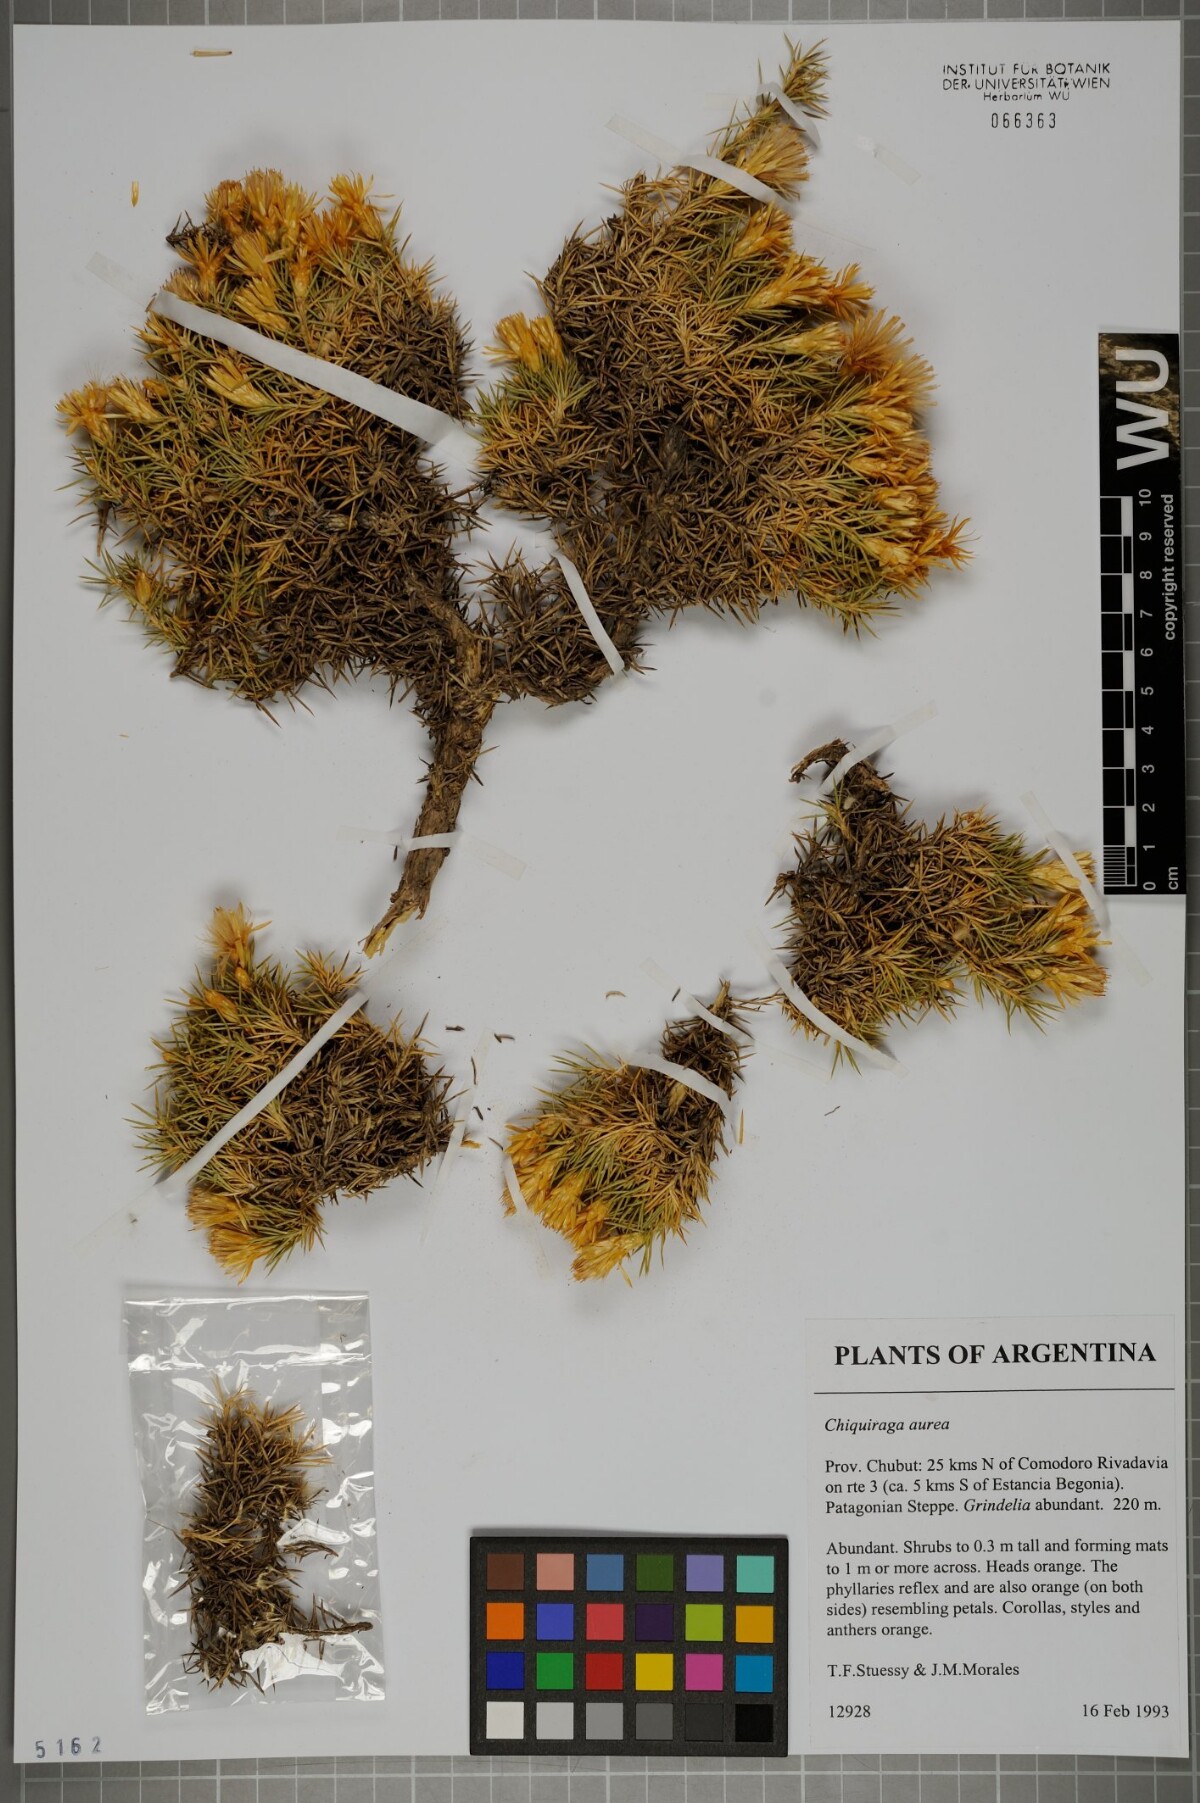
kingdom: Plantae
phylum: Tracheophyta
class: Magnoliopsida
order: Asterales
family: Asteraceae
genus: Chuquiraga
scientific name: Chuquiraga aurea
